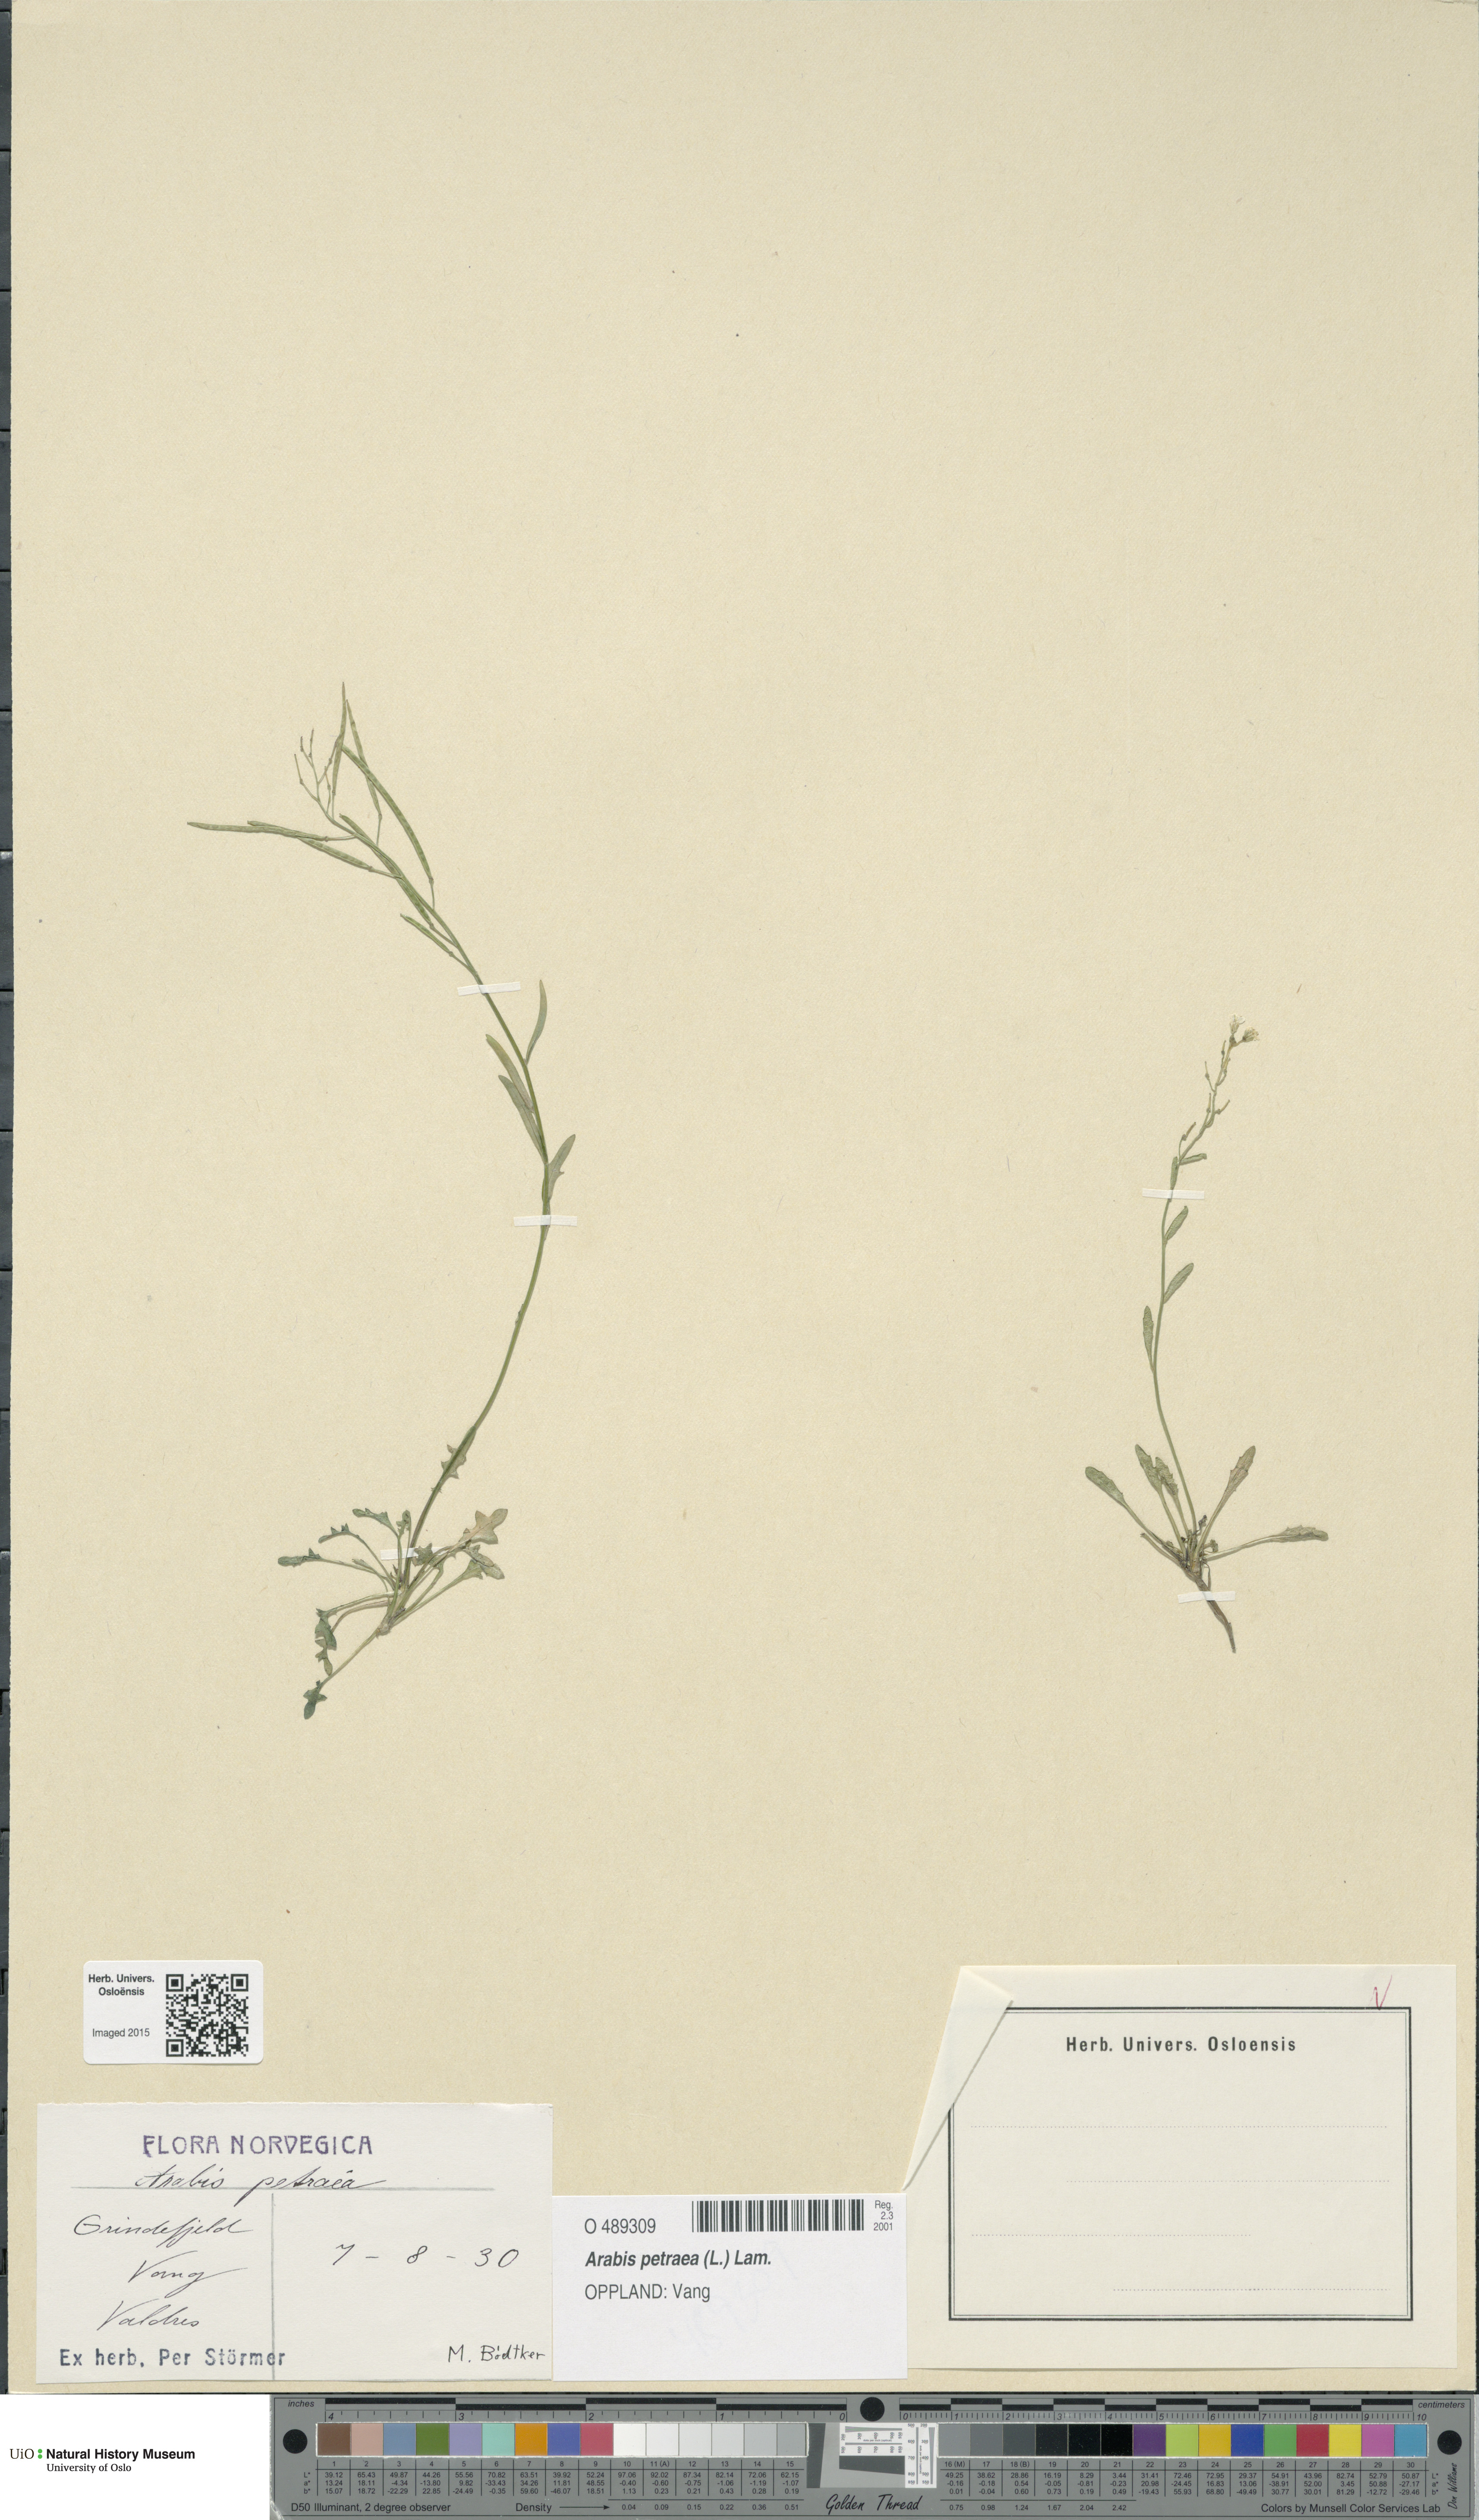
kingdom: Plantae
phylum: Tracheophyta
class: Magnoliopsida
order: Brassicales
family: Brassicaceae
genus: Arabidopsis
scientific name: Arabidopsis petraea
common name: Northern rock-cress
